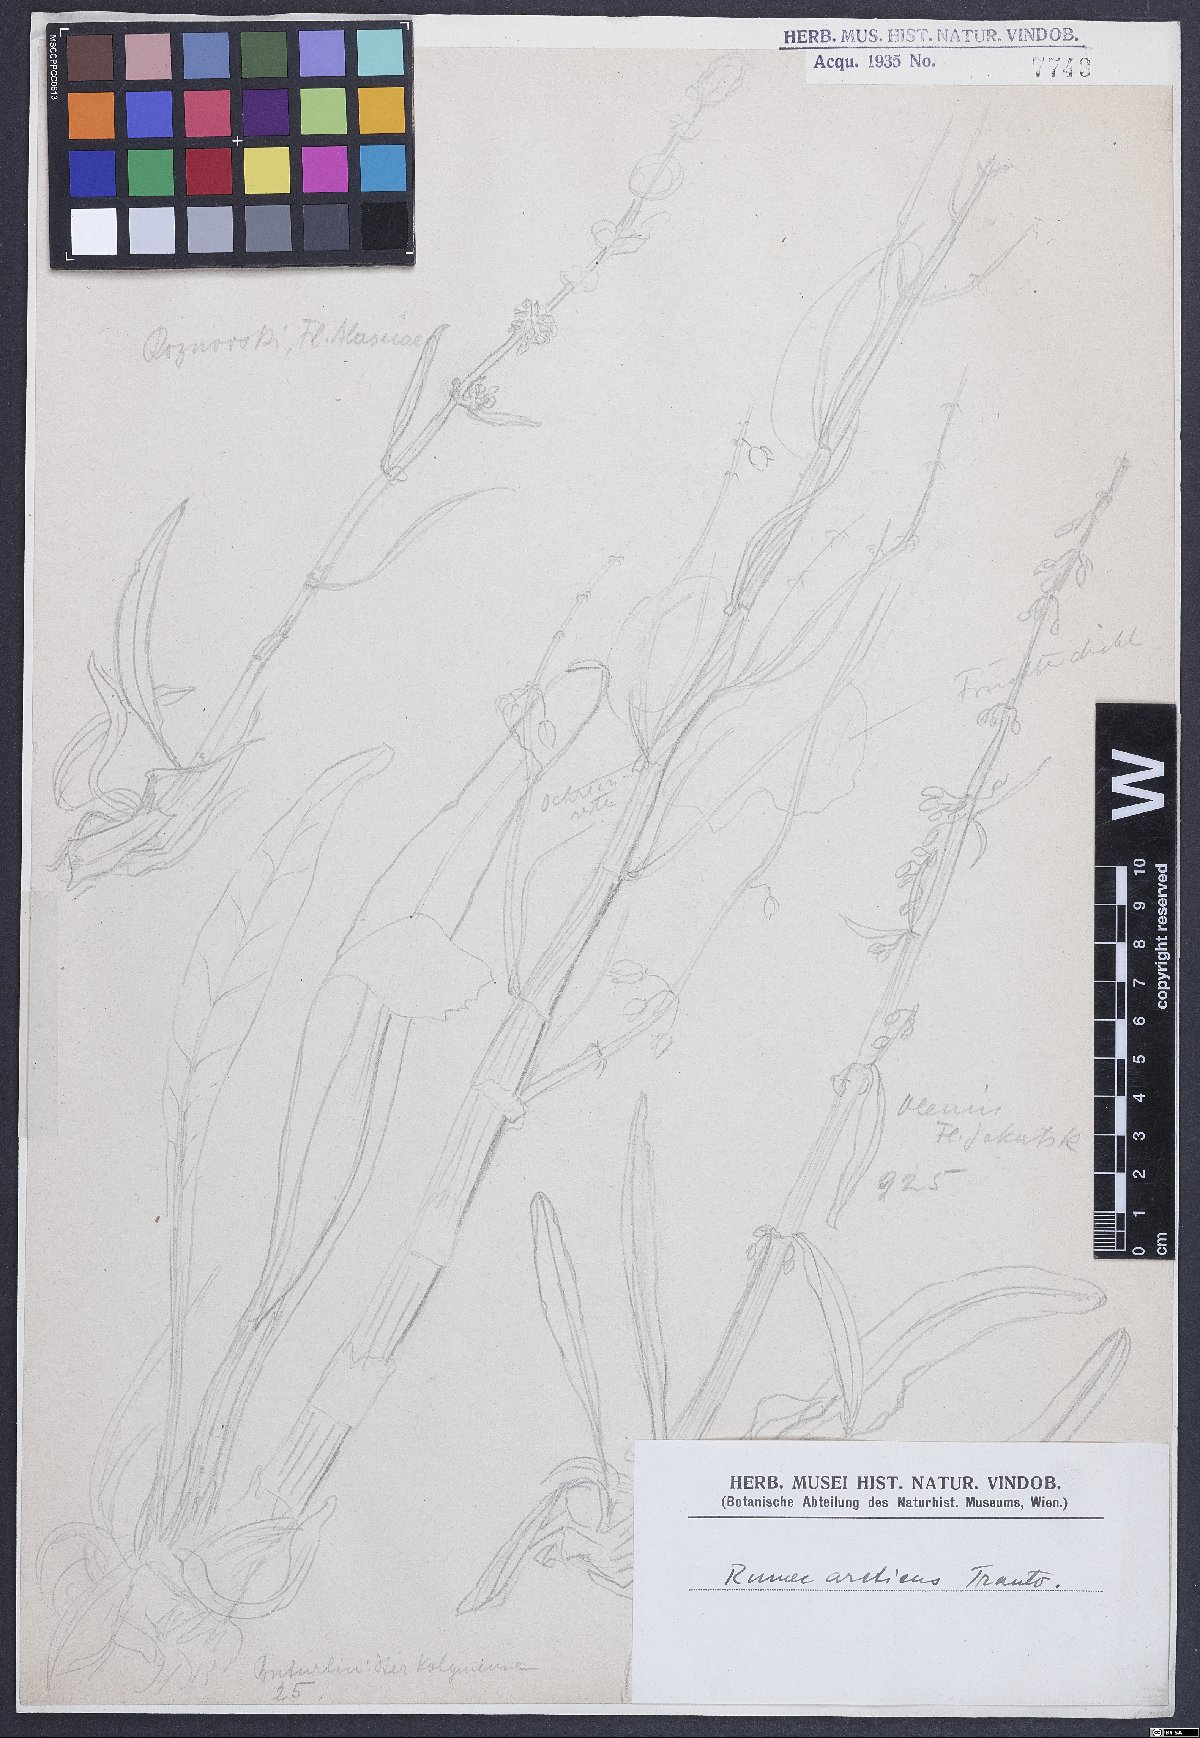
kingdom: Plantae
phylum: Tracheophyta
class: Magnoliopsida
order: Caryophyllales
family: Polygonaceae
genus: Rumex
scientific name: Rumex arcticus
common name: Arctic dock
